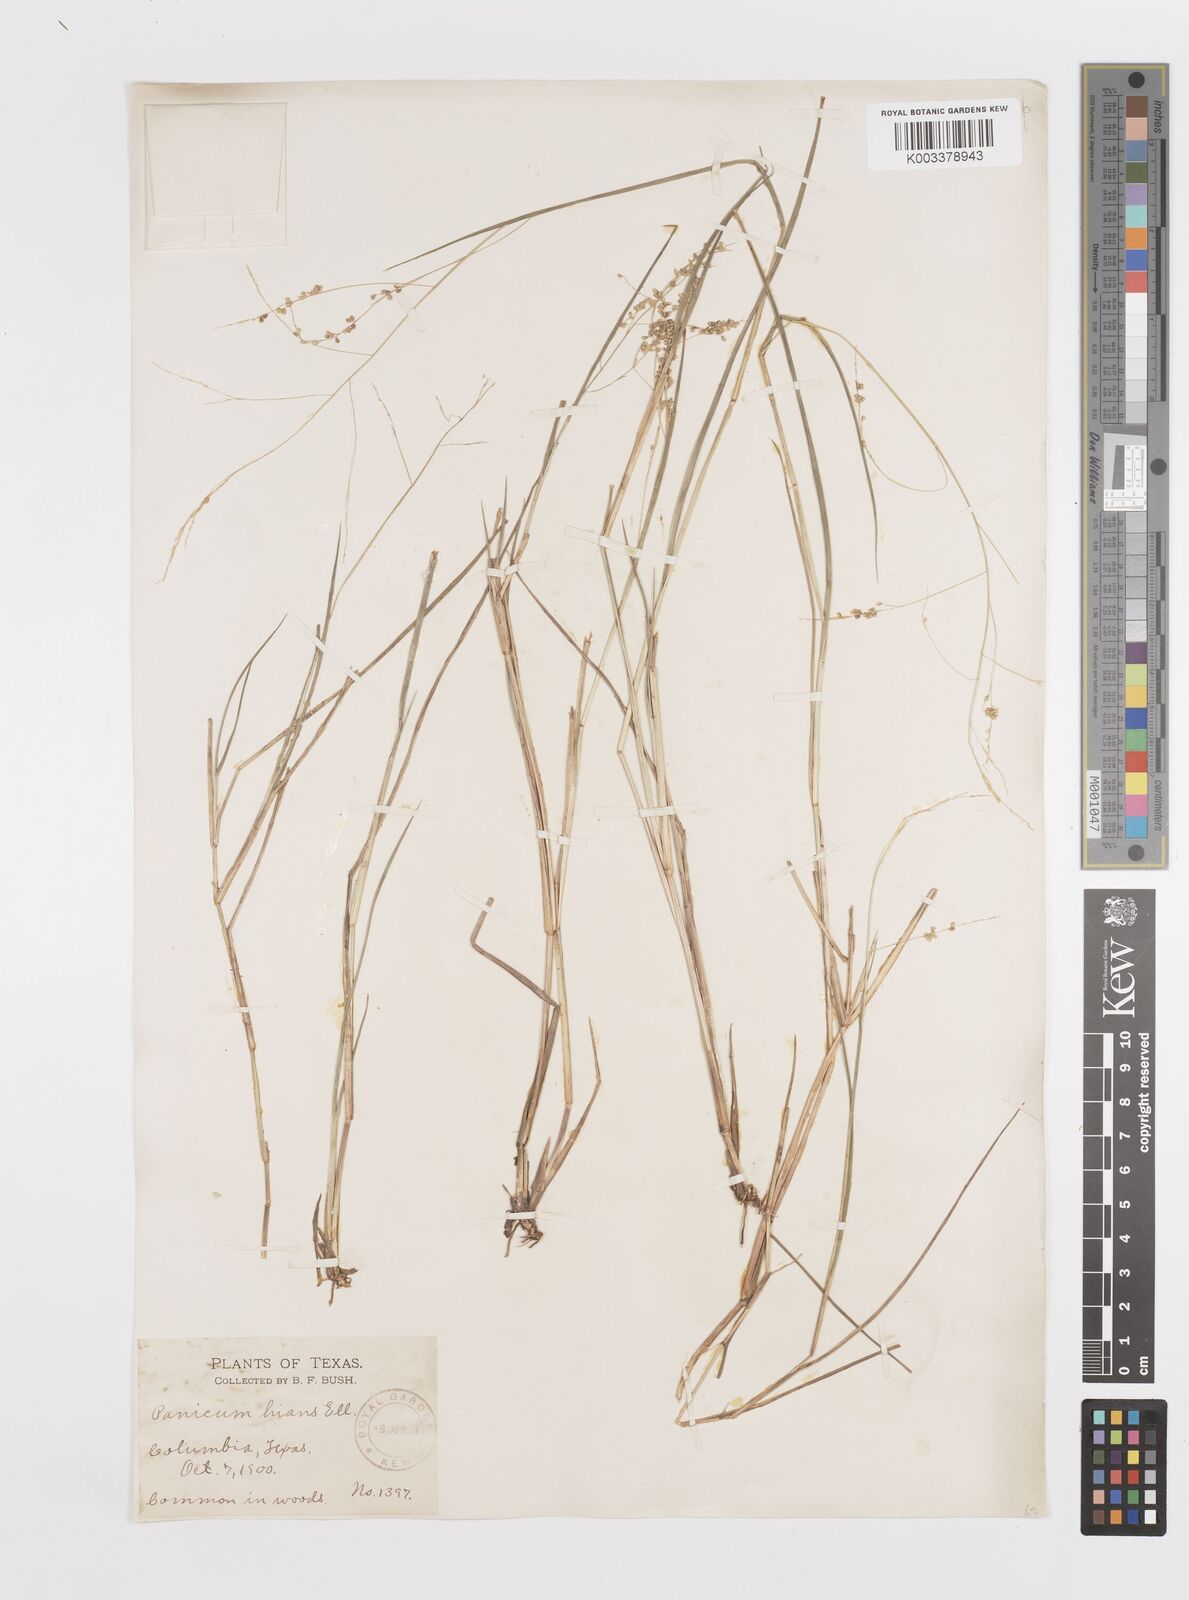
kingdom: Plantae
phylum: Tracheophyta
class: Liliopsida
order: Poales
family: Poaceae
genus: Steinchisma
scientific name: Steinchisma hians
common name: Gaping panic grass
